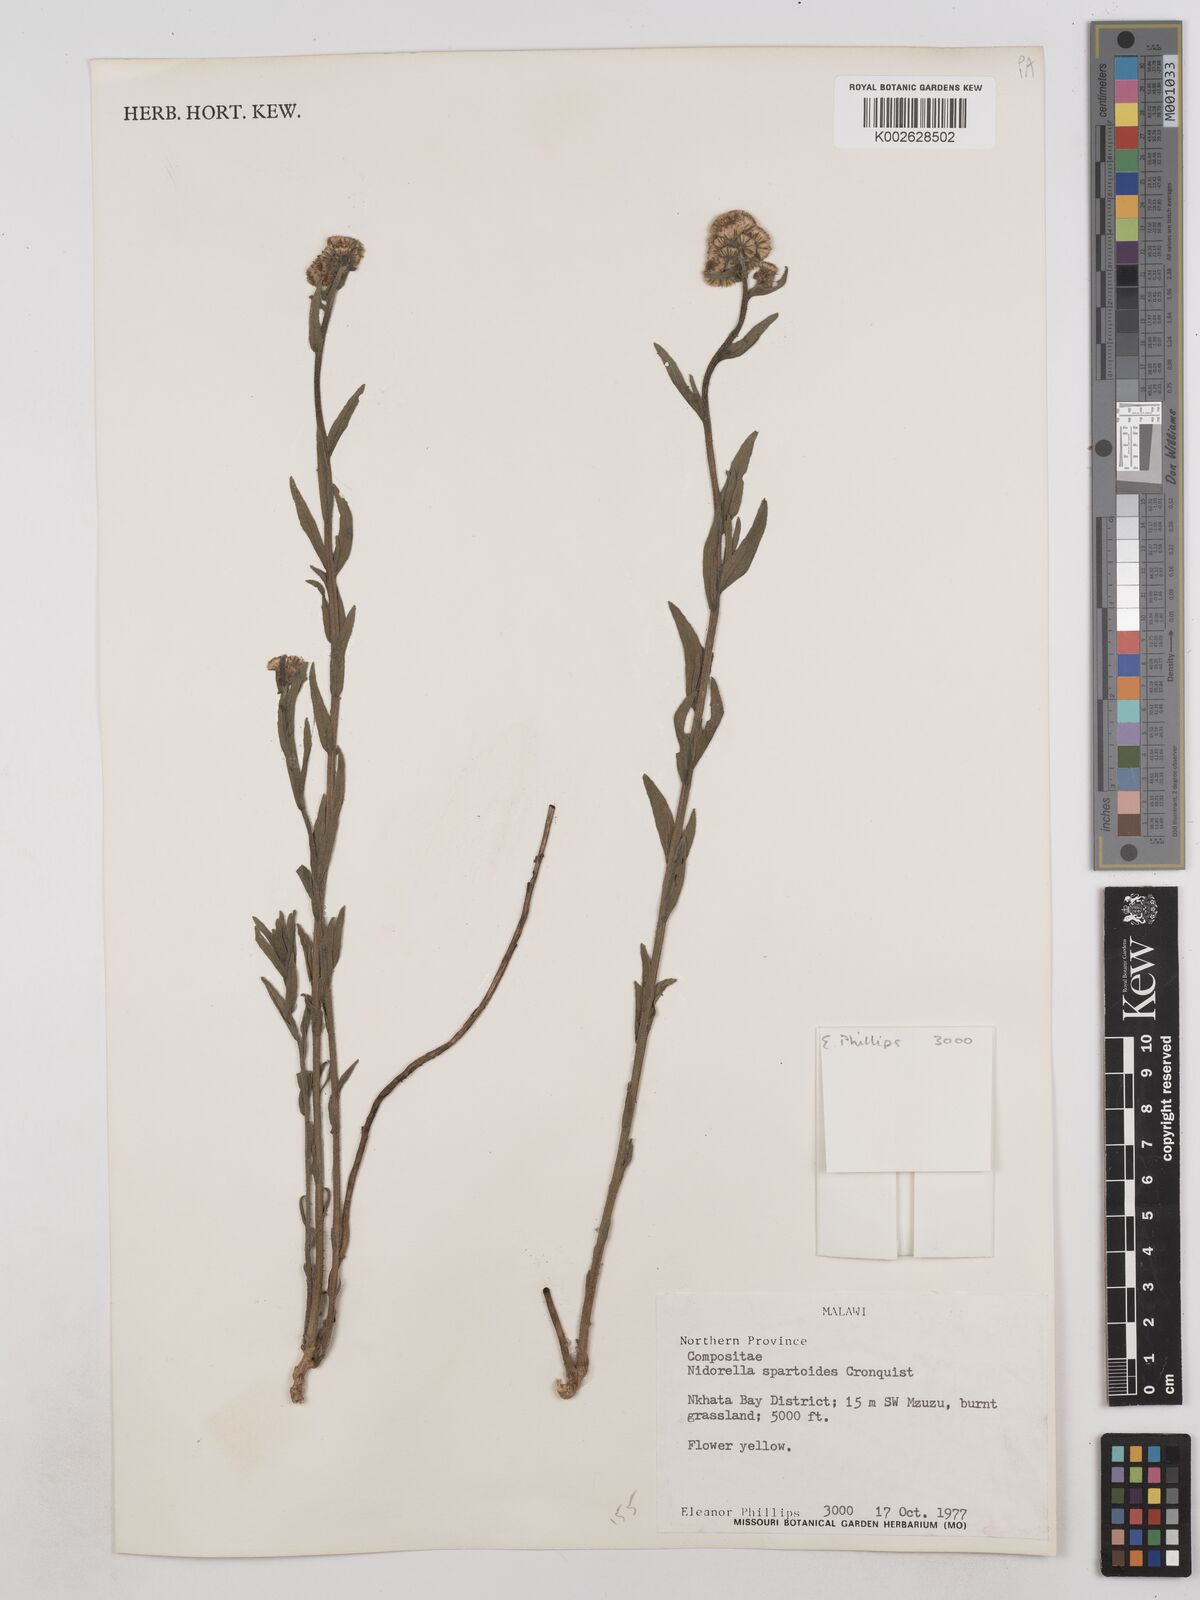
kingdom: Plantae
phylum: Tracheophyta
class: Magnoliopsida
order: Asterales
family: Asteraceae
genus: Nidorella
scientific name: Nidorella spartioides
